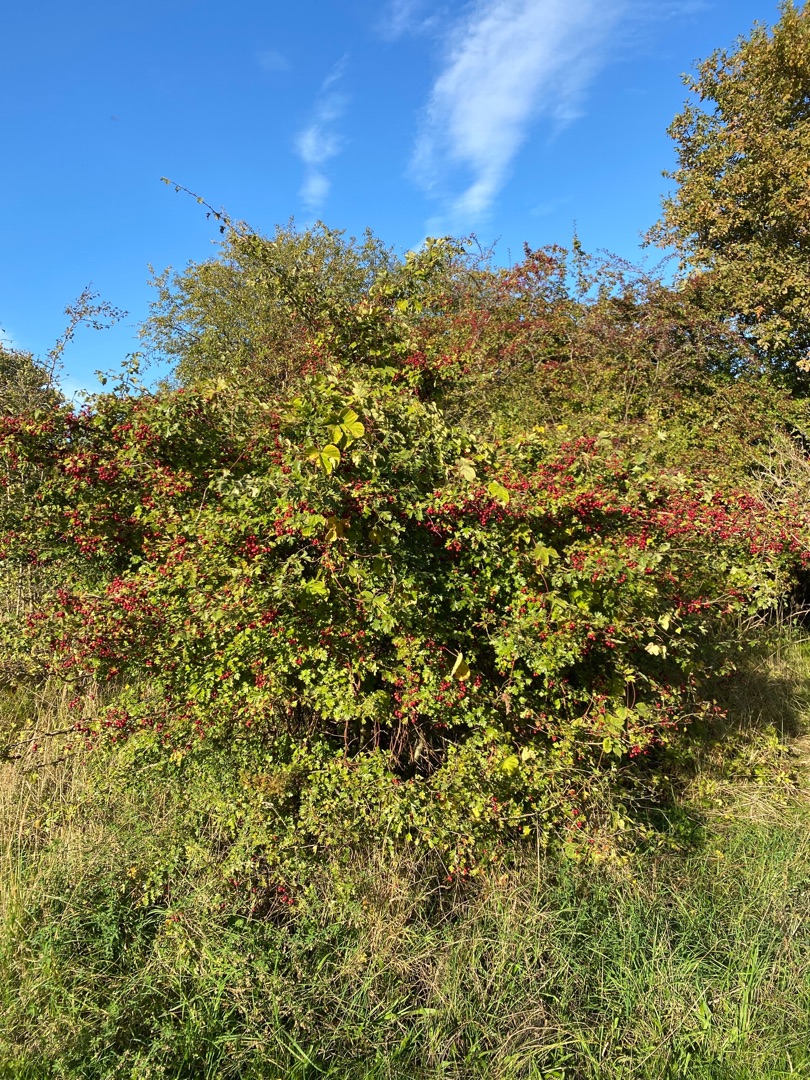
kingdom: Plantae
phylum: Tracheophyta
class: Magnoliopsida
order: Rosales
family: Rosaceae
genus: Crataegus
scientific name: Crataegus subsphaerica
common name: Engriflet hvidtjørn × koral-hvidtjørn
